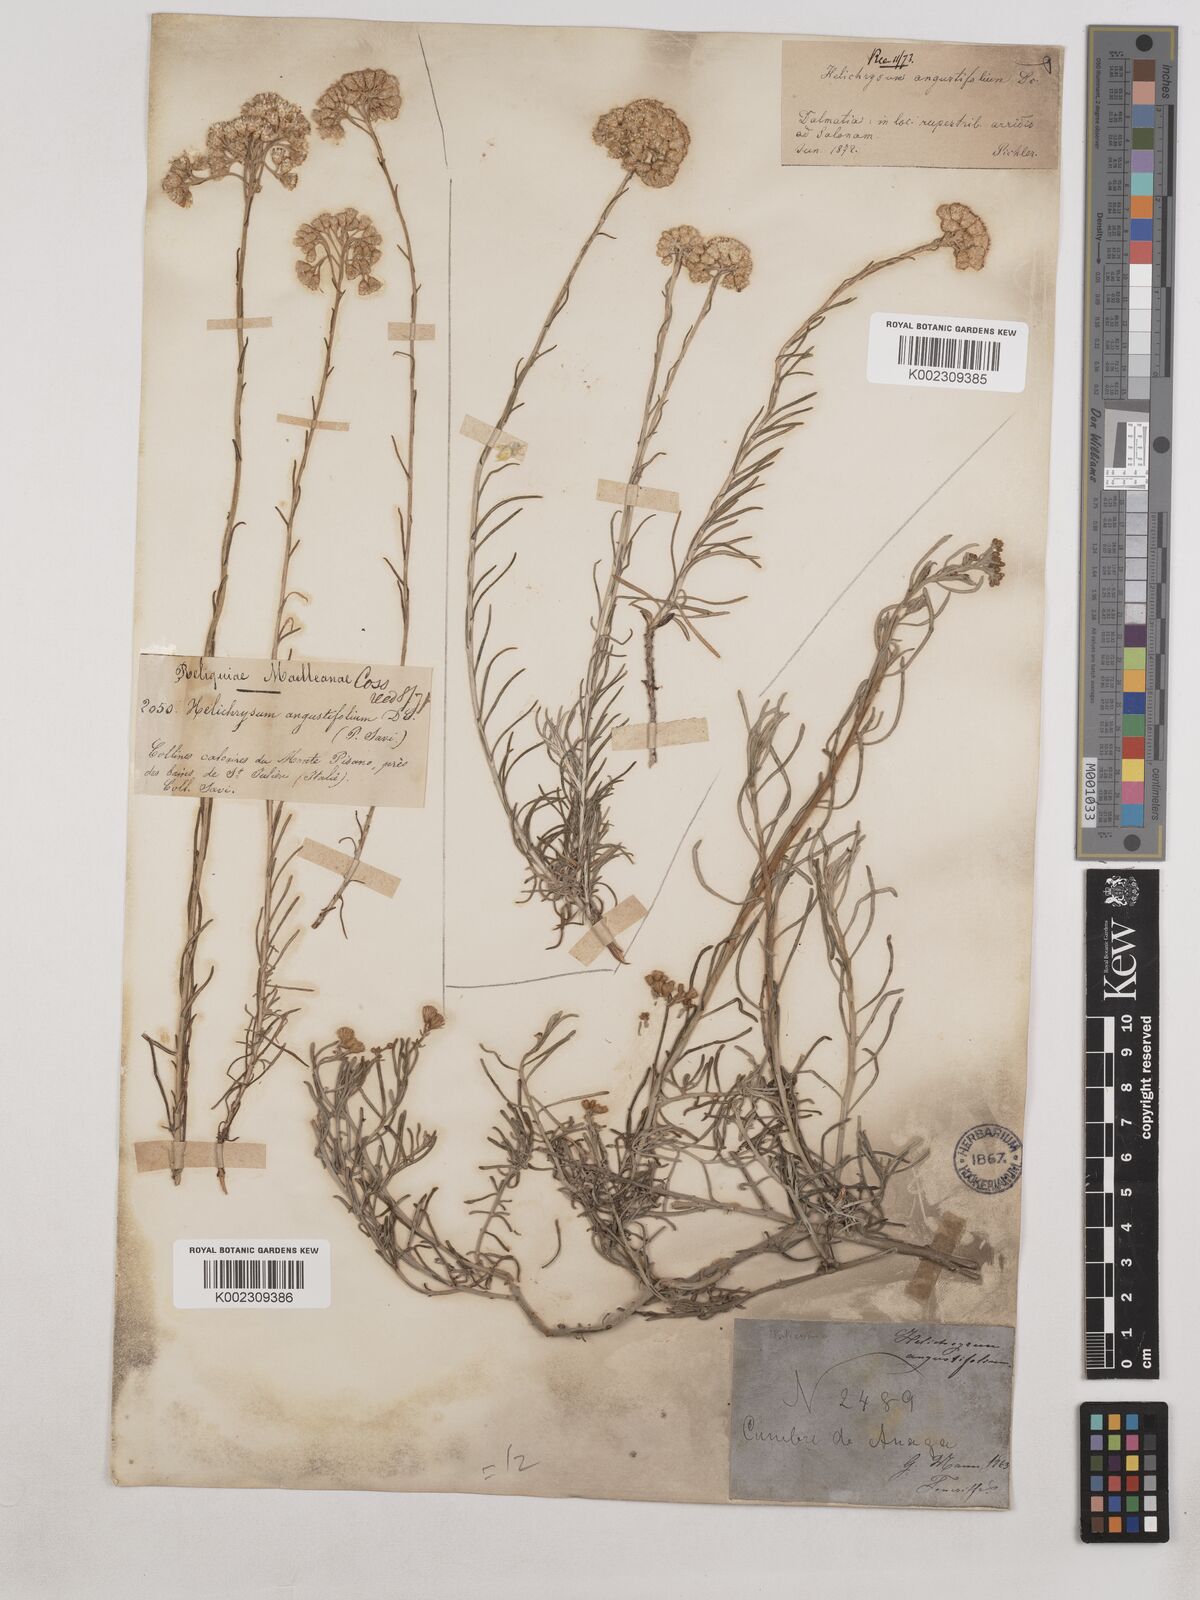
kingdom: Plantae
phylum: Tracheophyta
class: Magnoliopsida
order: Asterales
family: Asteraceae
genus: Helichrysum
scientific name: Helichrysum
